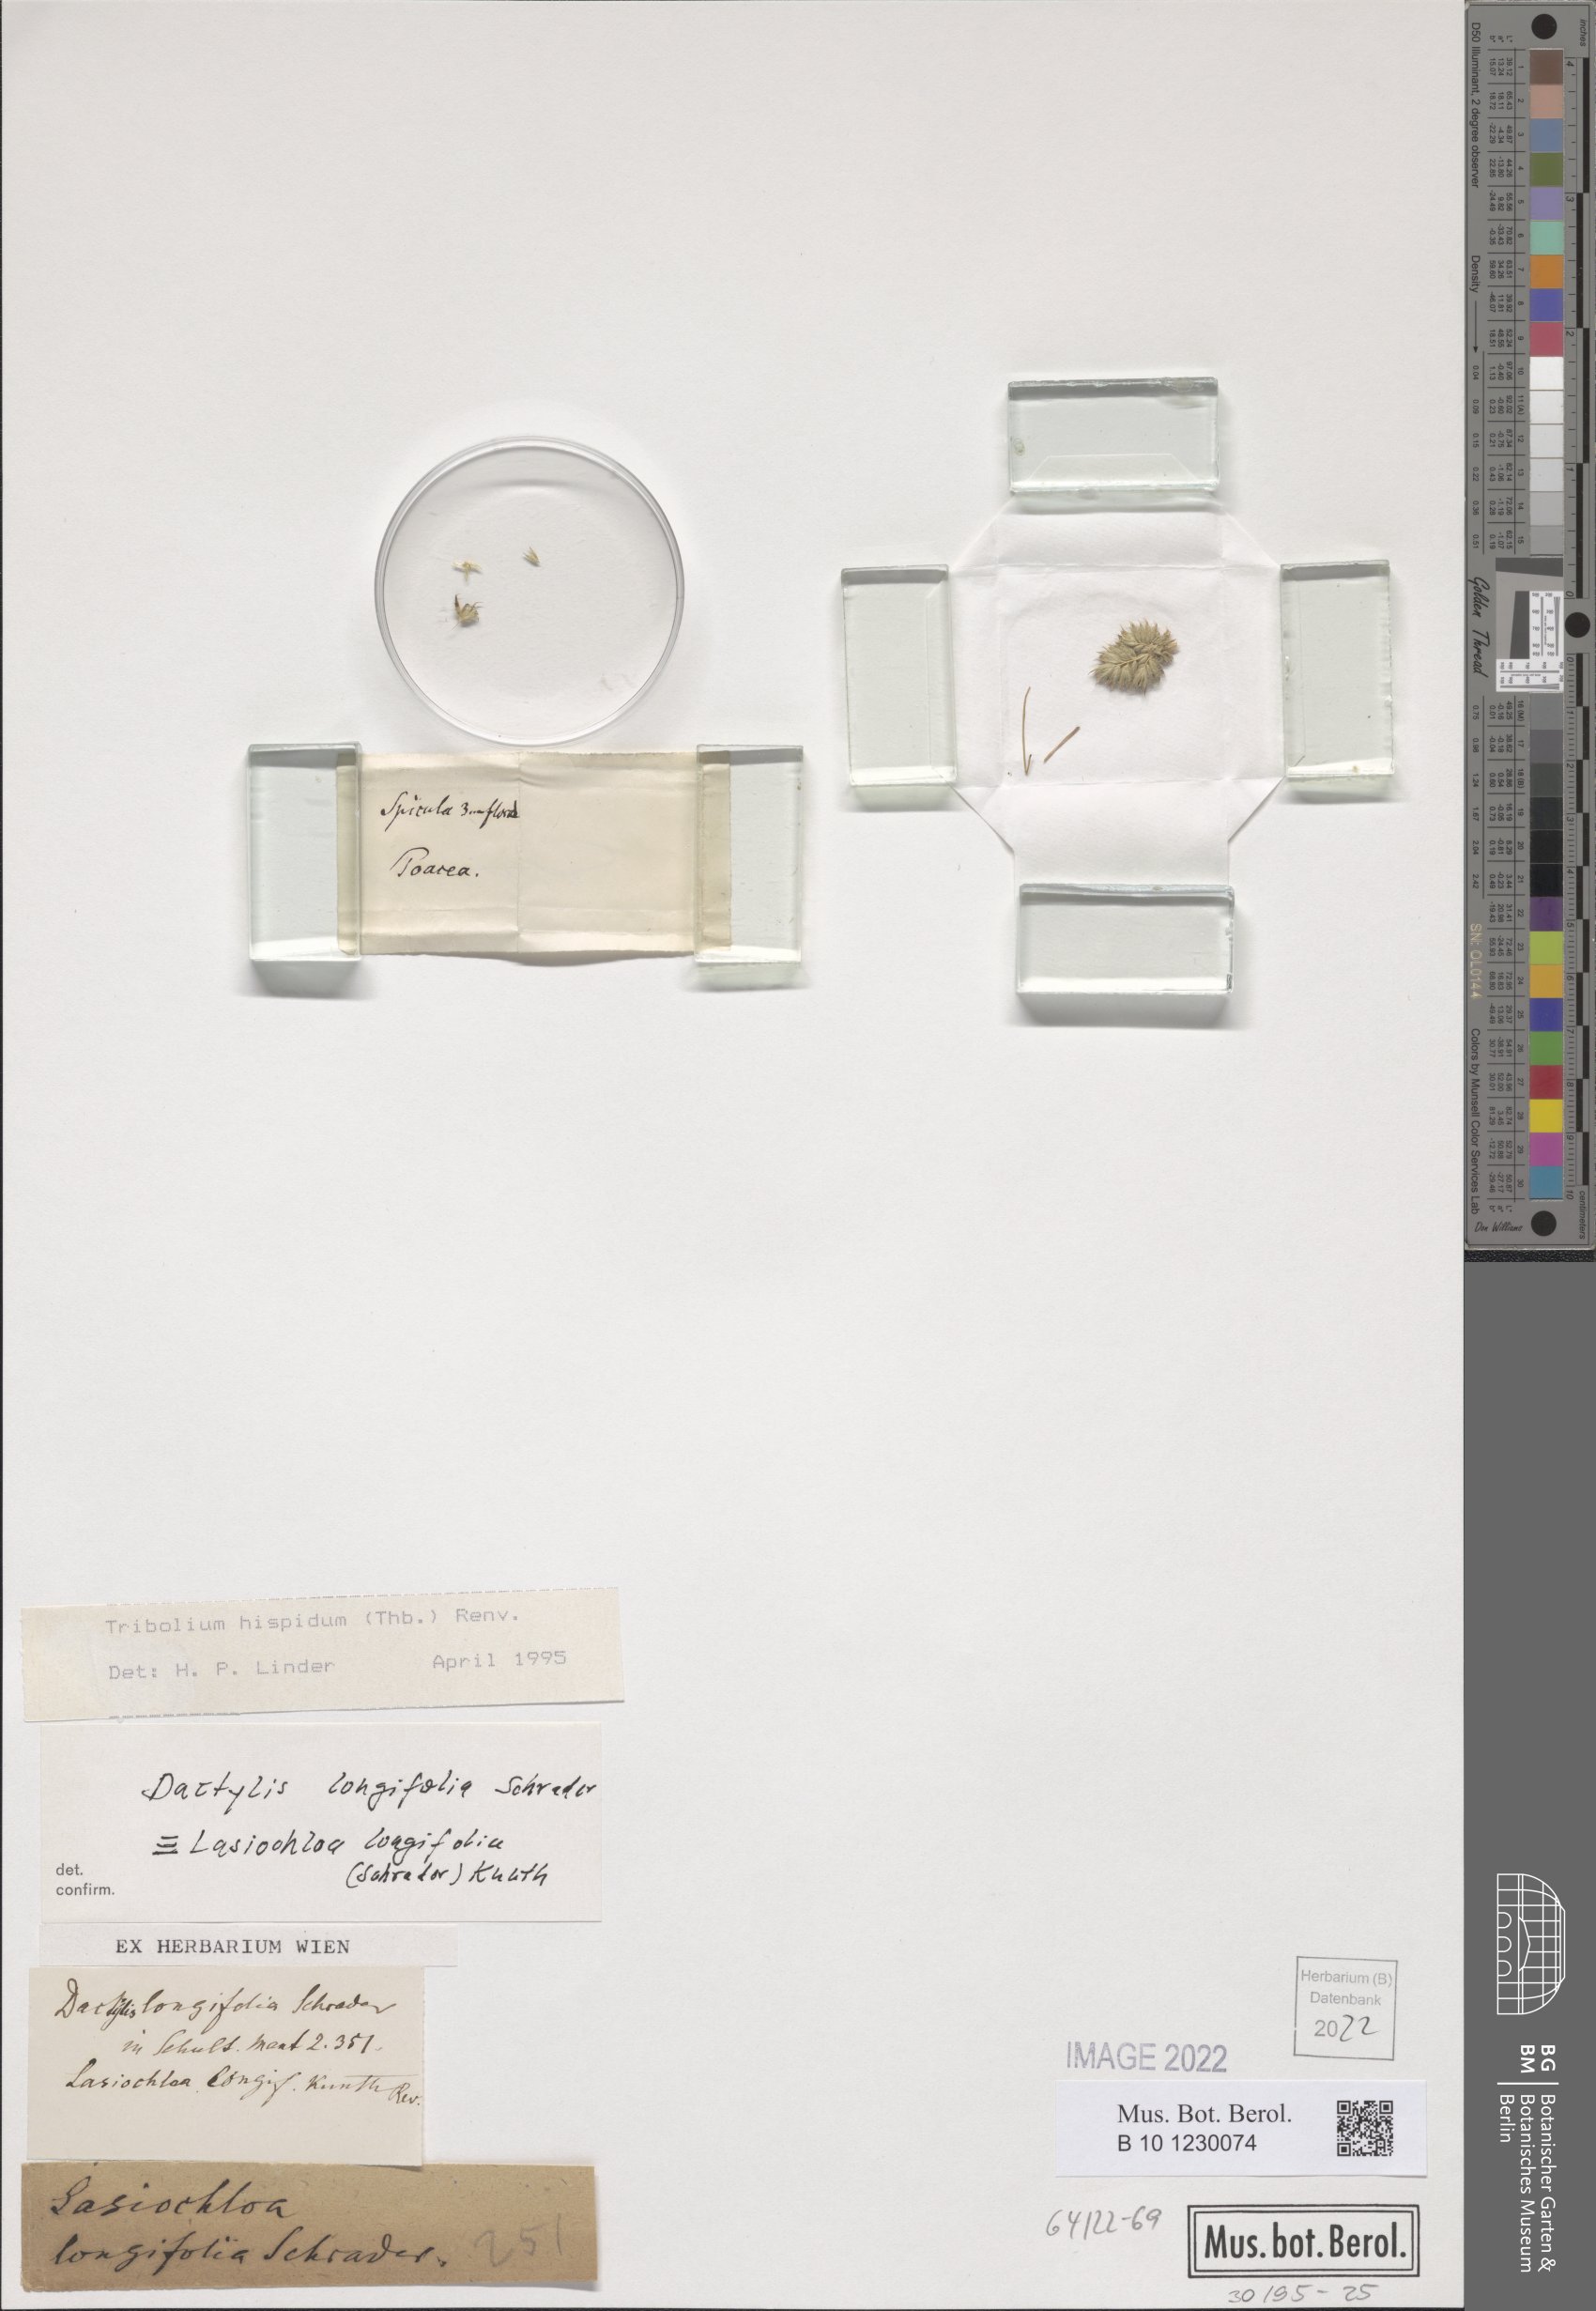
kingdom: Plantae
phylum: Tracheophyta
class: Liliopsida
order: Poales
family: Poaceae
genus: Tribolium
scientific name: Tribolium hispidum
